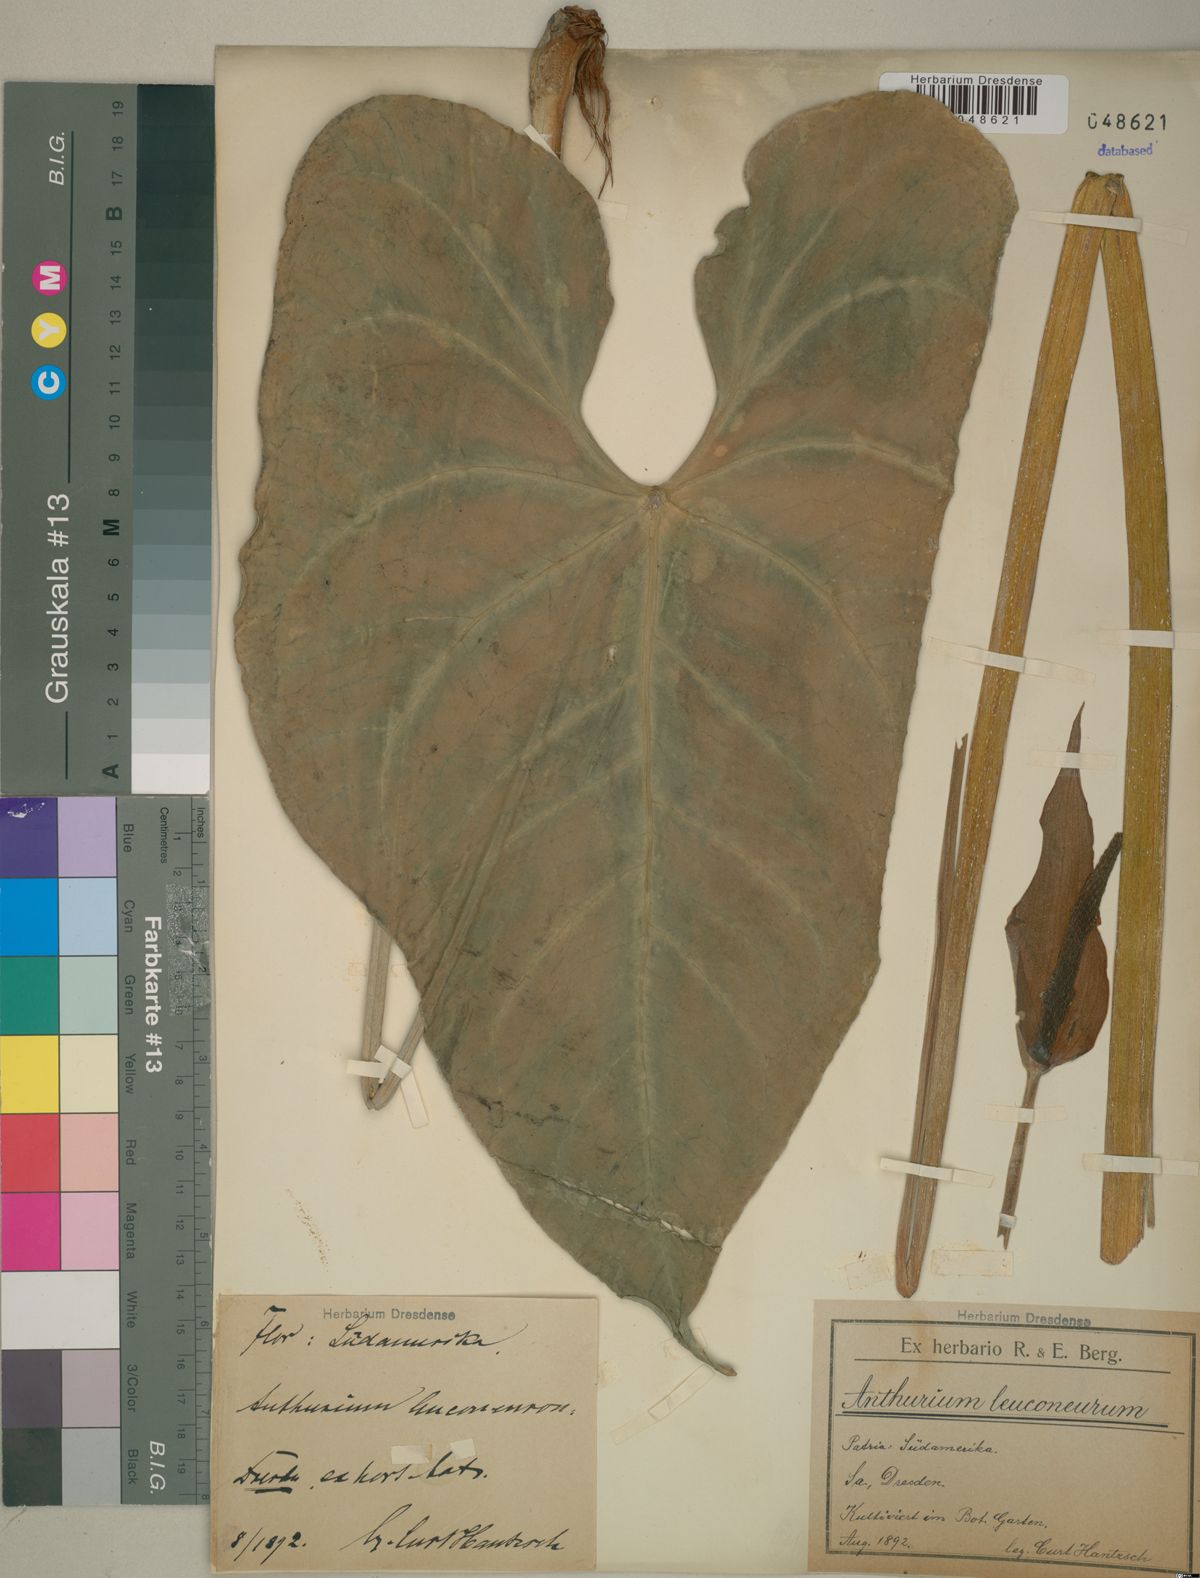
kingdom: Plantae
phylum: Tracheophyta
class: Liliopsida
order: Alismatales
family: Araceae
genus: Anthurium
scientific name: Anthurium leuconeurum
